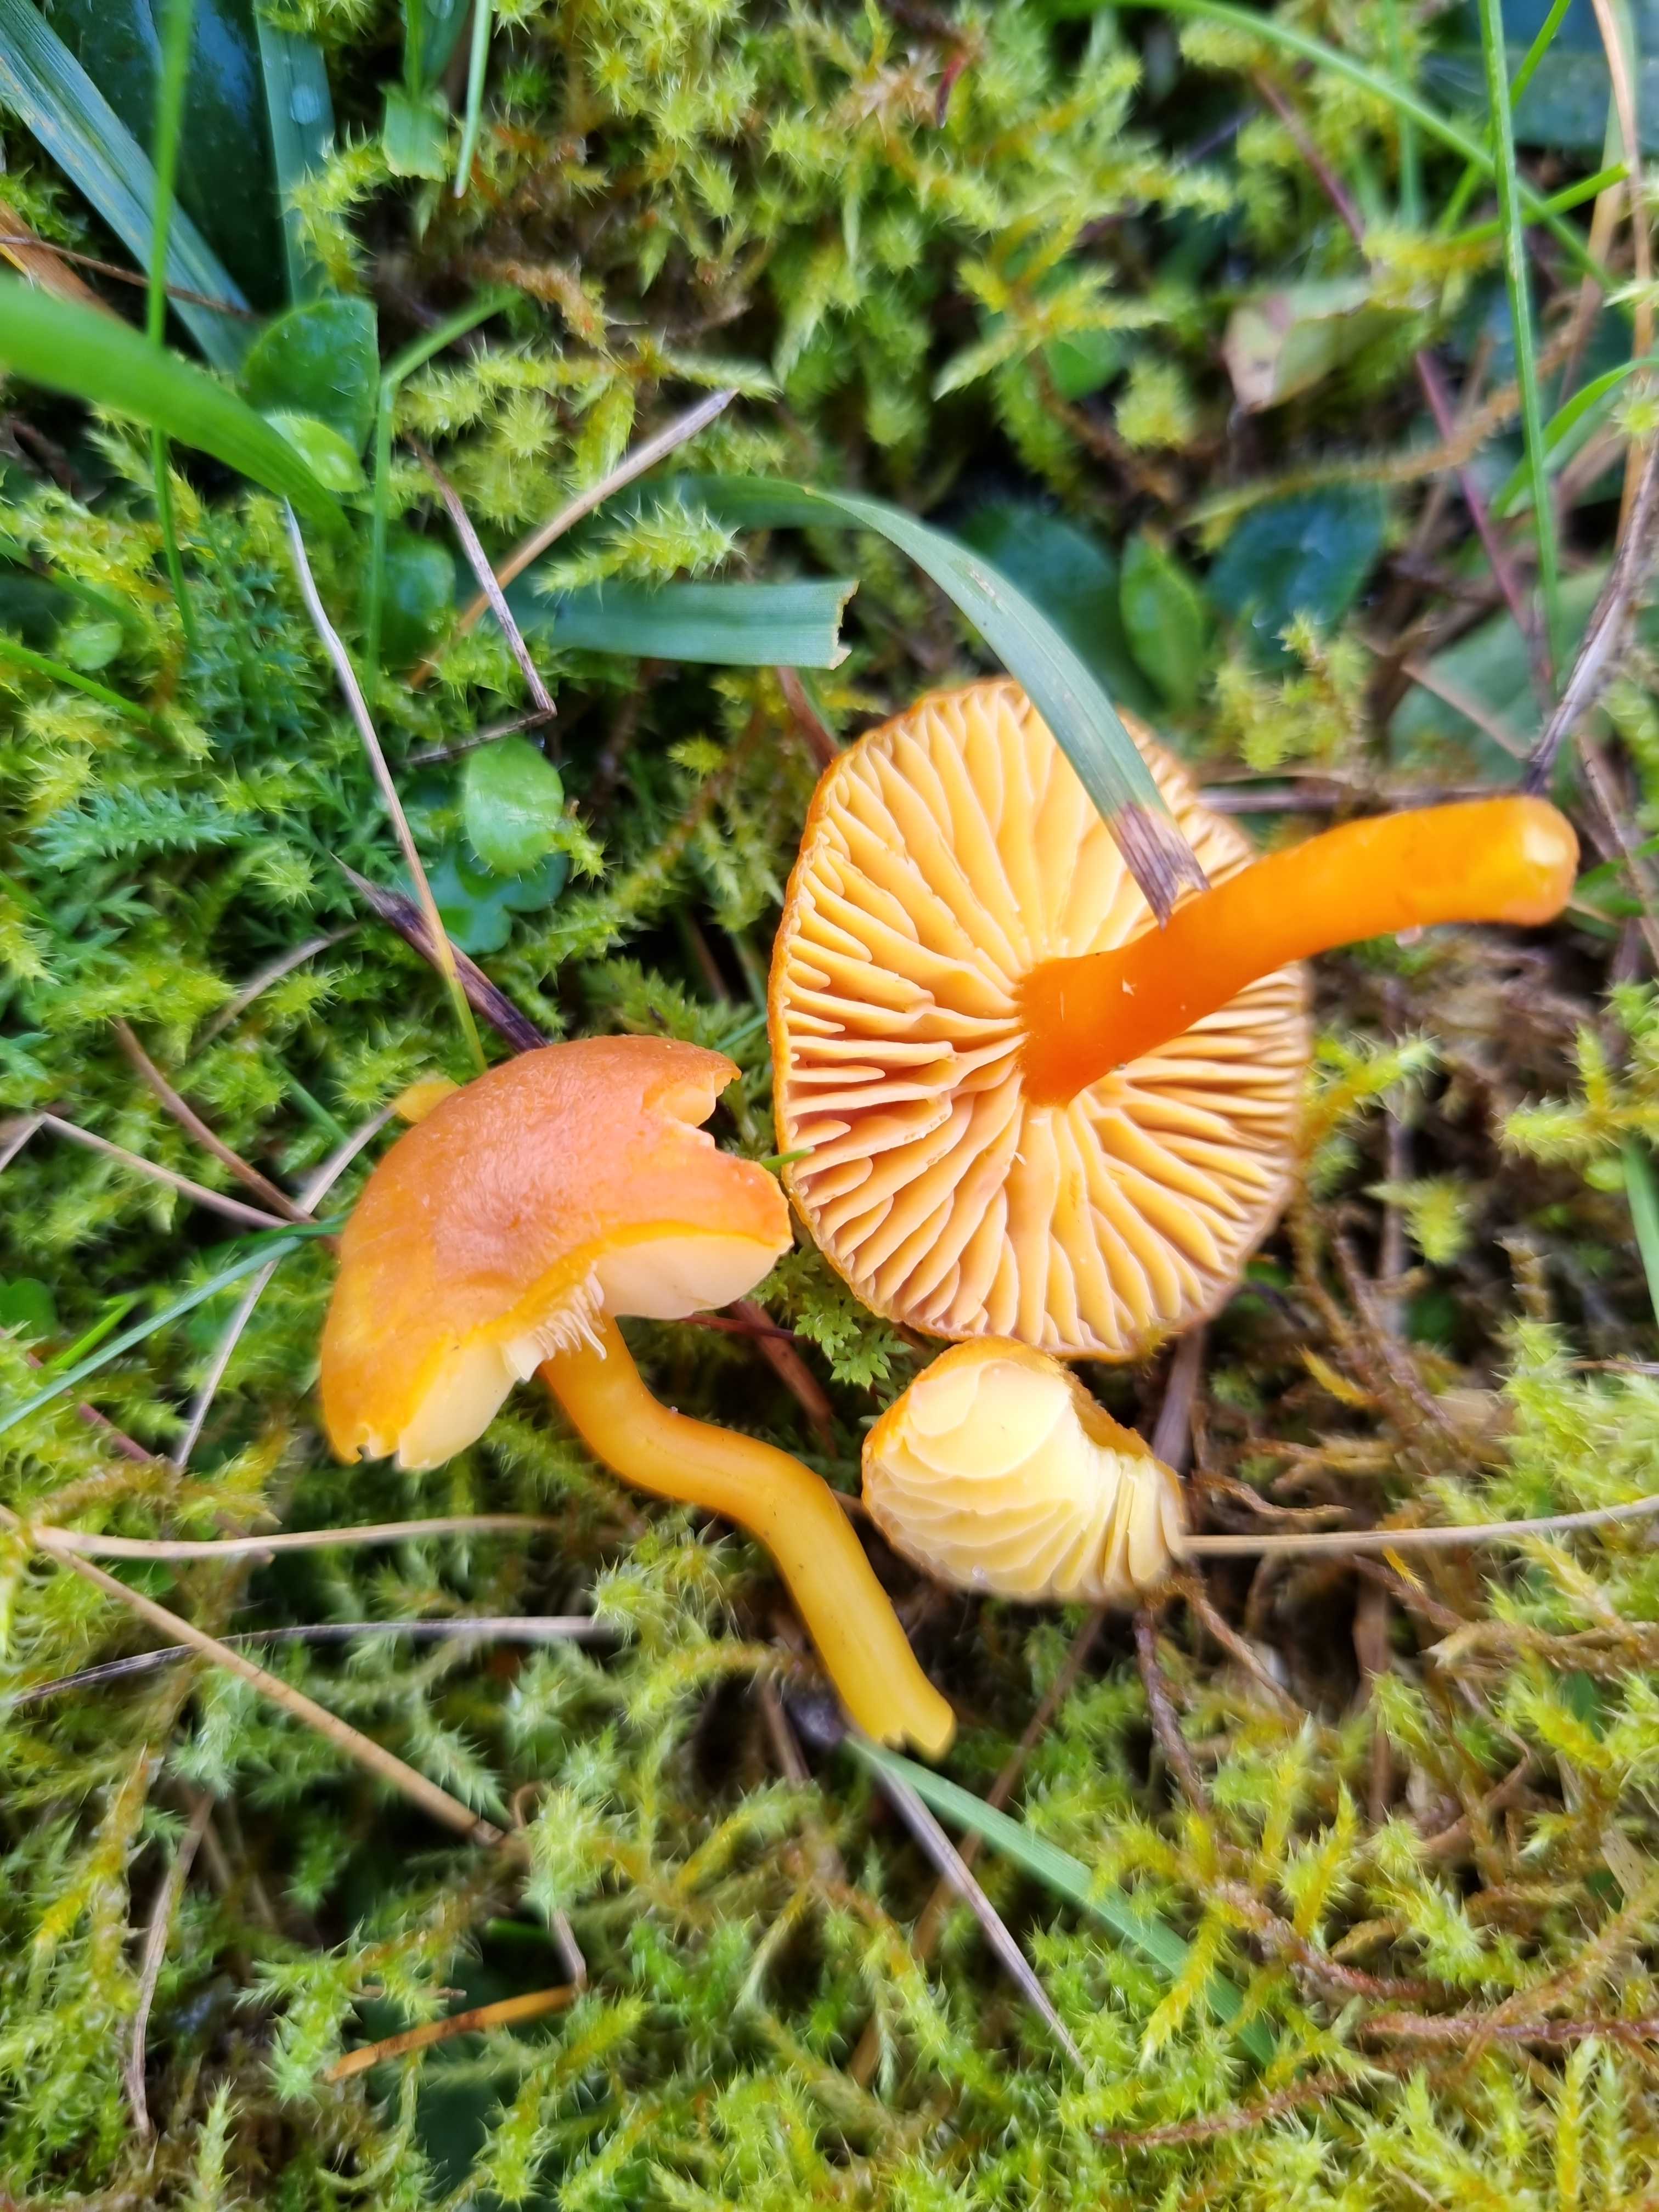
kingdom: Fungi
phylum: Basidiomycota
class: Agaricomycetes
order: Agaricales
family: Hygrophoraceae
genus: Hygrocybe
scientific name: Hygrocybe miniata
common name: mønje-vokshat
